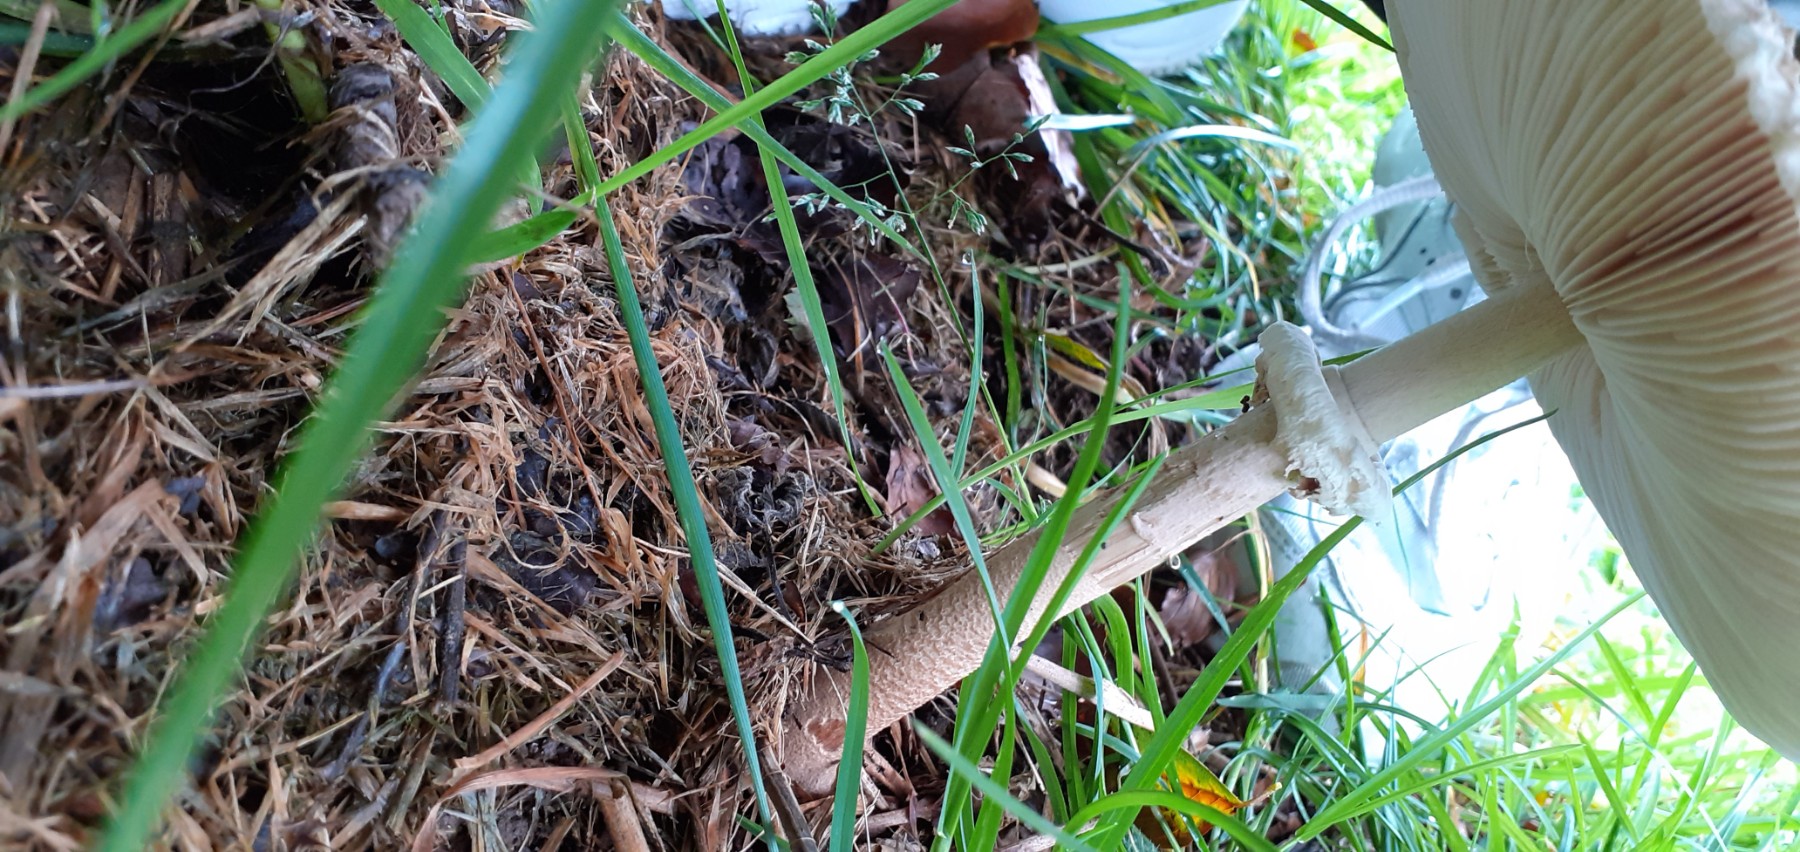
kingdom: Fungi
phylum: Basidiomycota
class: Agaricomycetes
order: Agaricales
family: Agaricaceae
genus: Macrolepiota
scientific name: Macrolepiota
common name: kæmpeparasolhat
